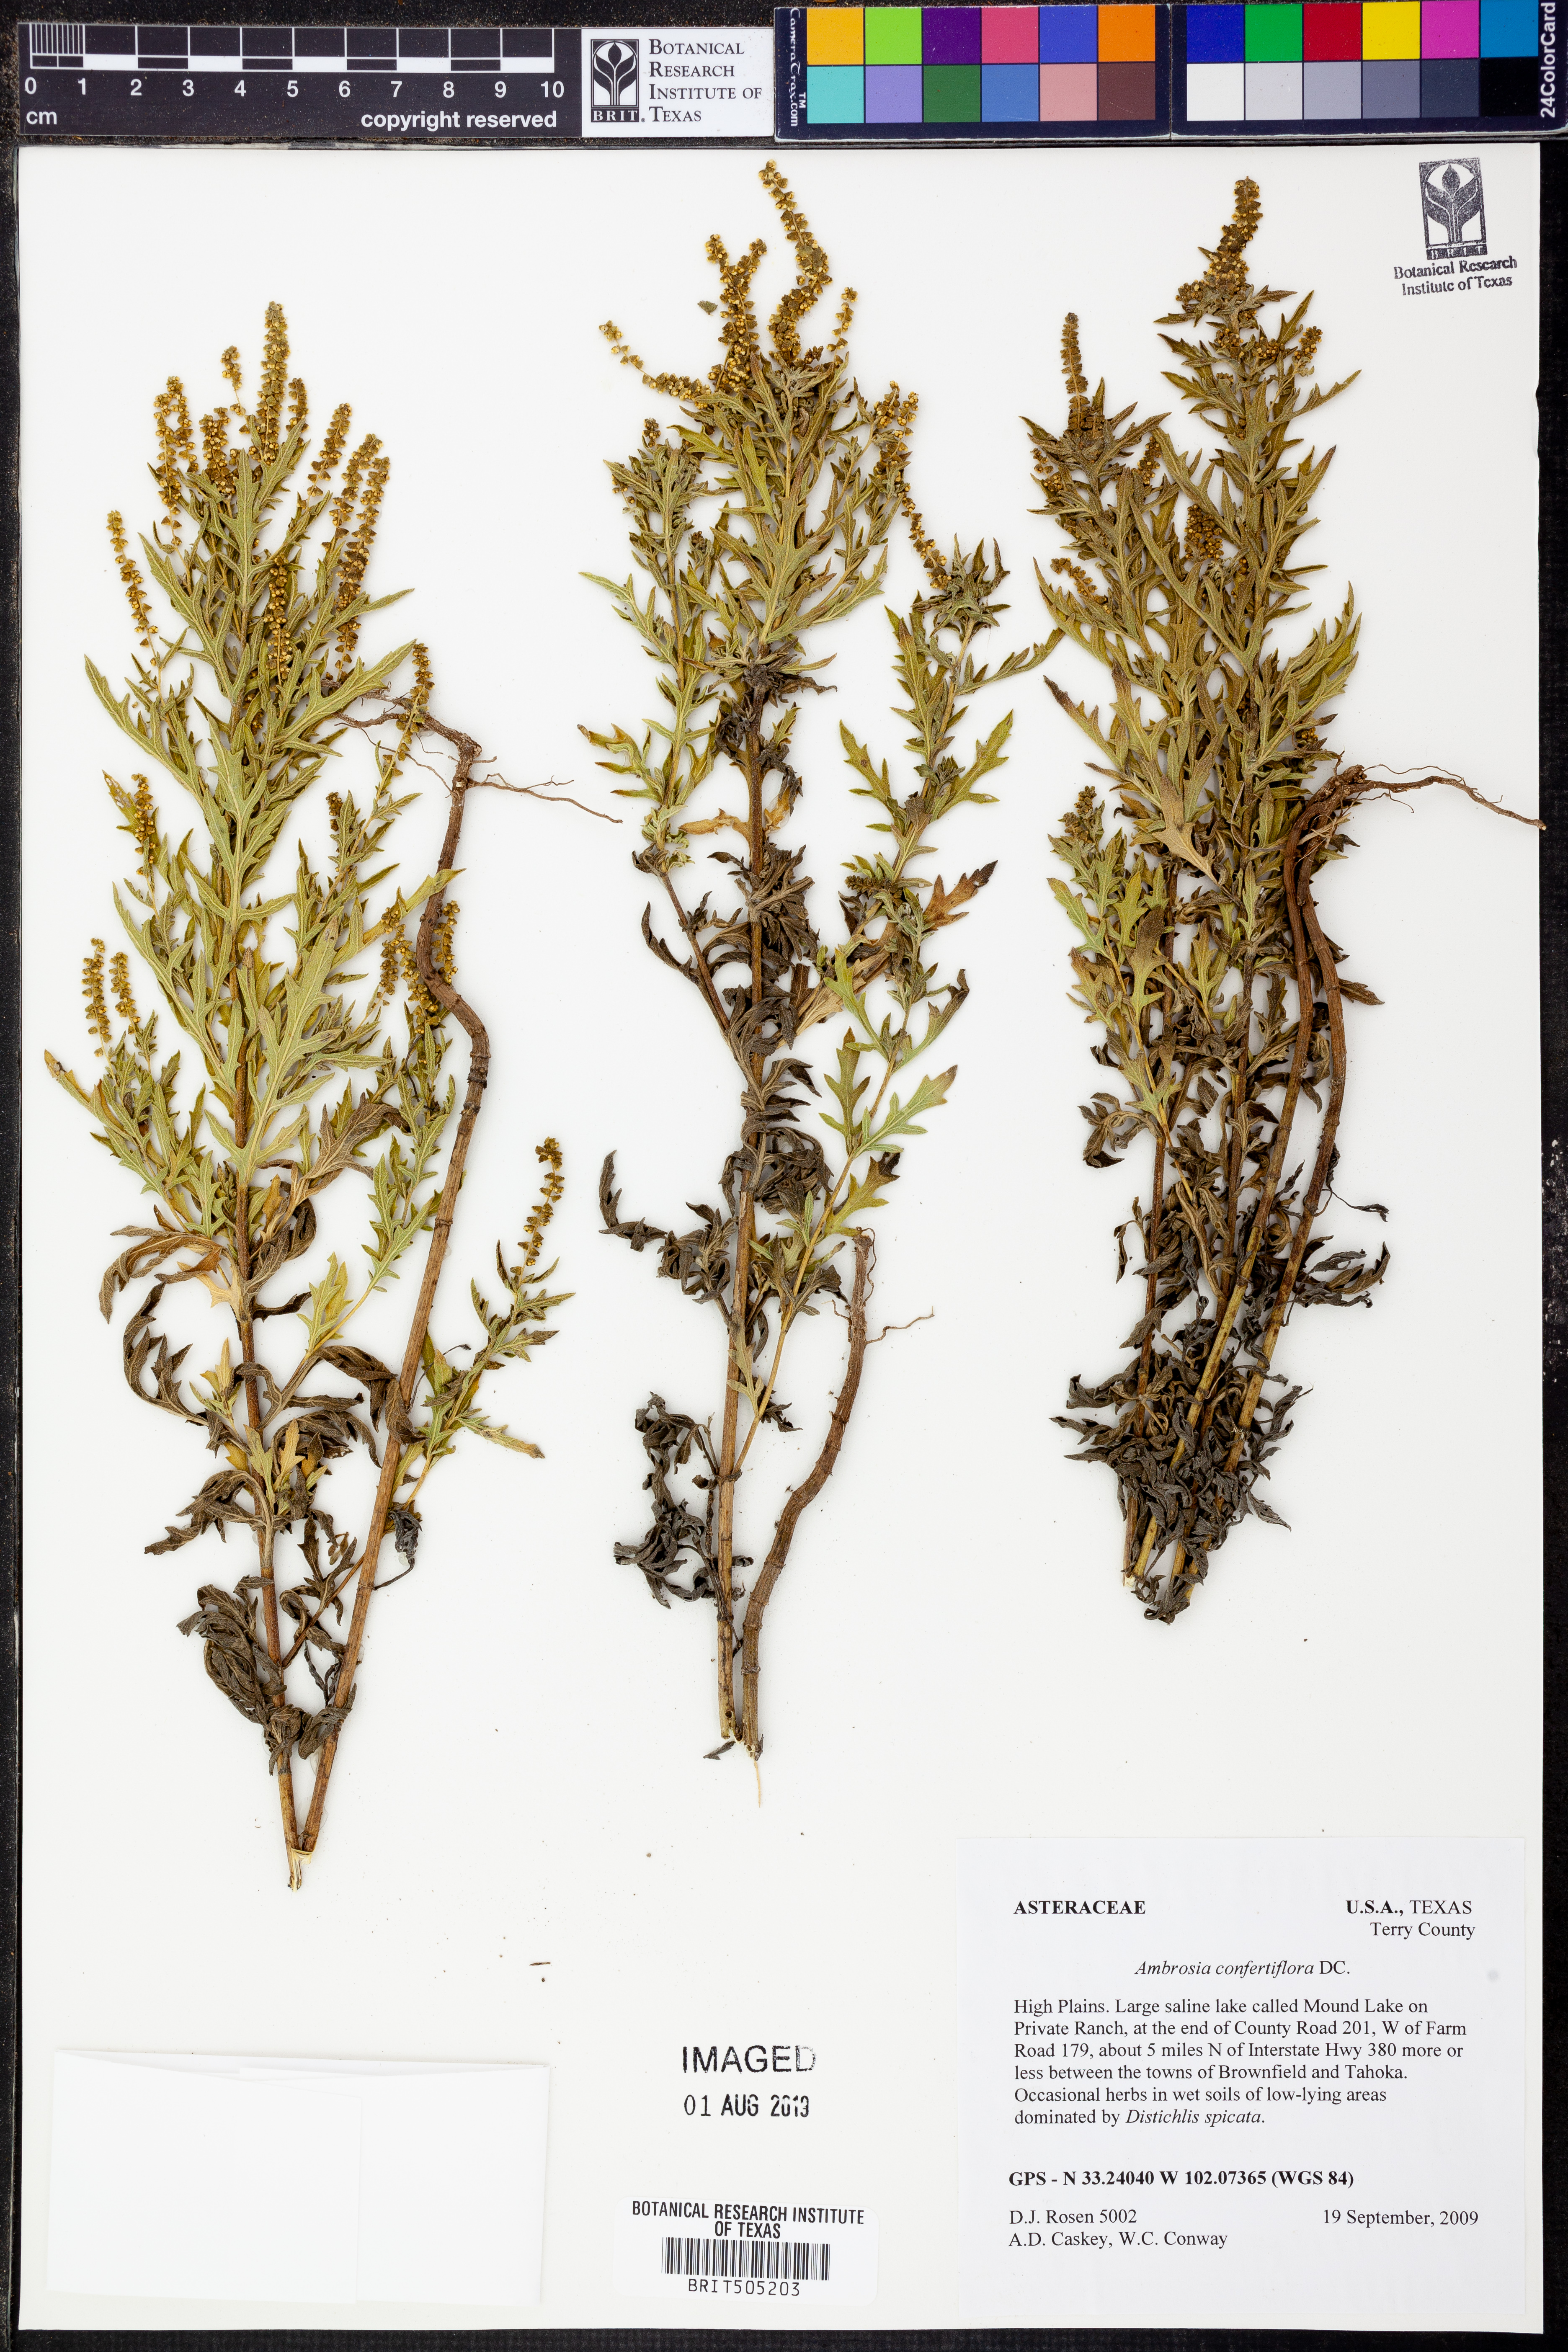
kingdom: Plantae
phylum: Tracheophyta
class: Magnoliopsida
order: Asterales
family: Asteraceae
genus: Ambrosia
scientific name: Ambrosia confertiflora
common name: Bur ragweed
